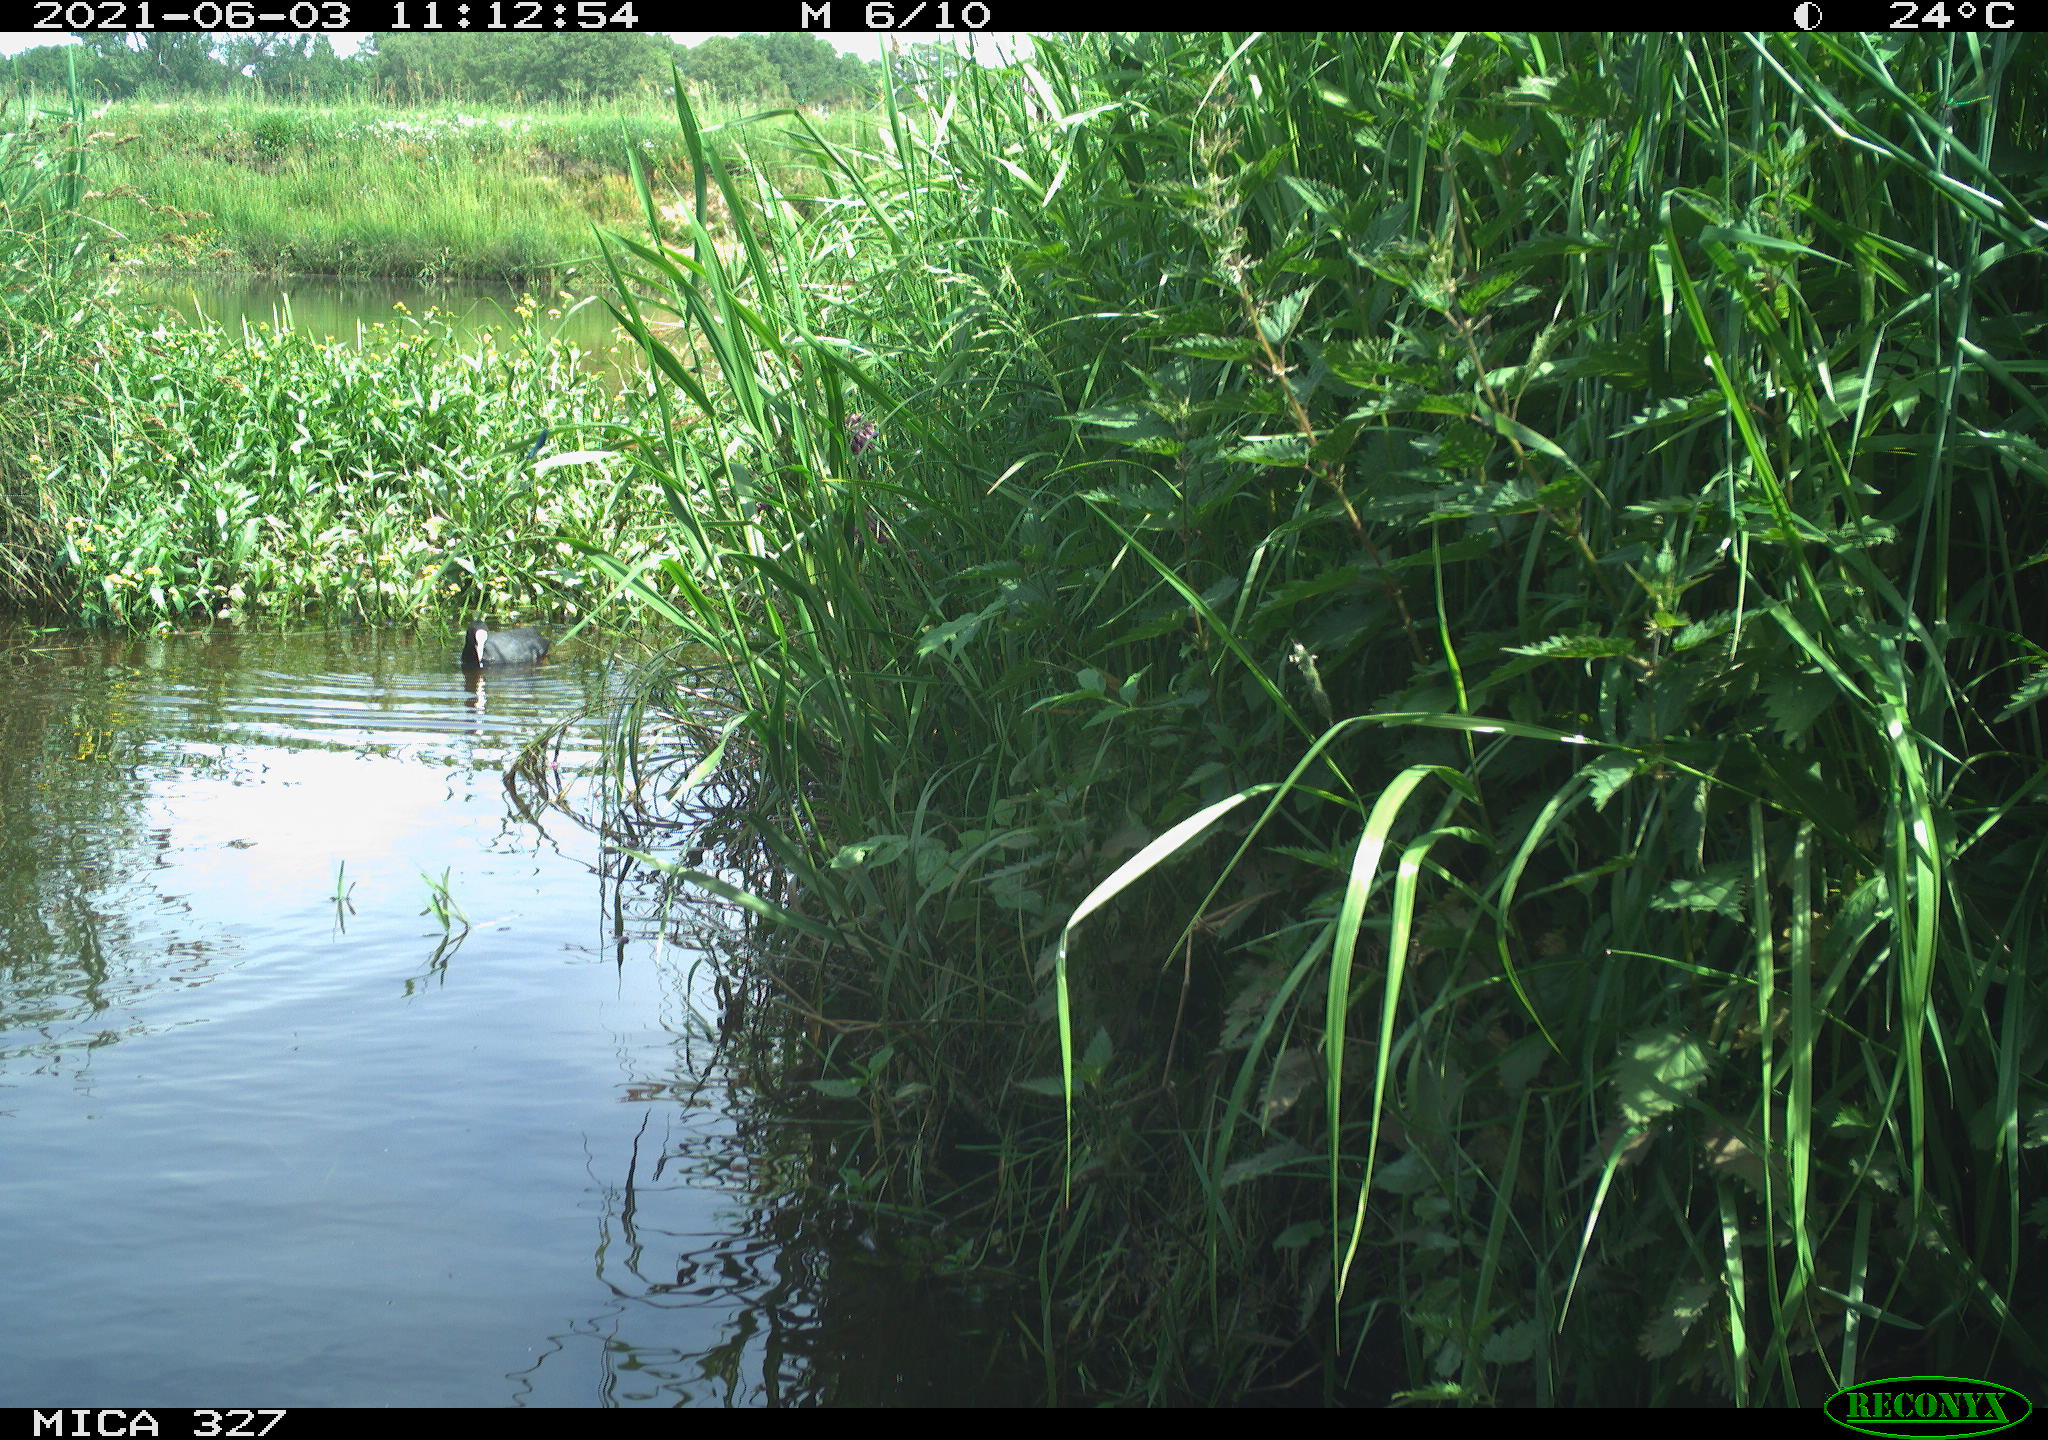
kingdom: Animalia
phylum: Chordata
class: Aves
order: Gruiformes
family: Rallidae
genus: Fulica
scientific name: Fulica atra
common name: Eurasian coot
